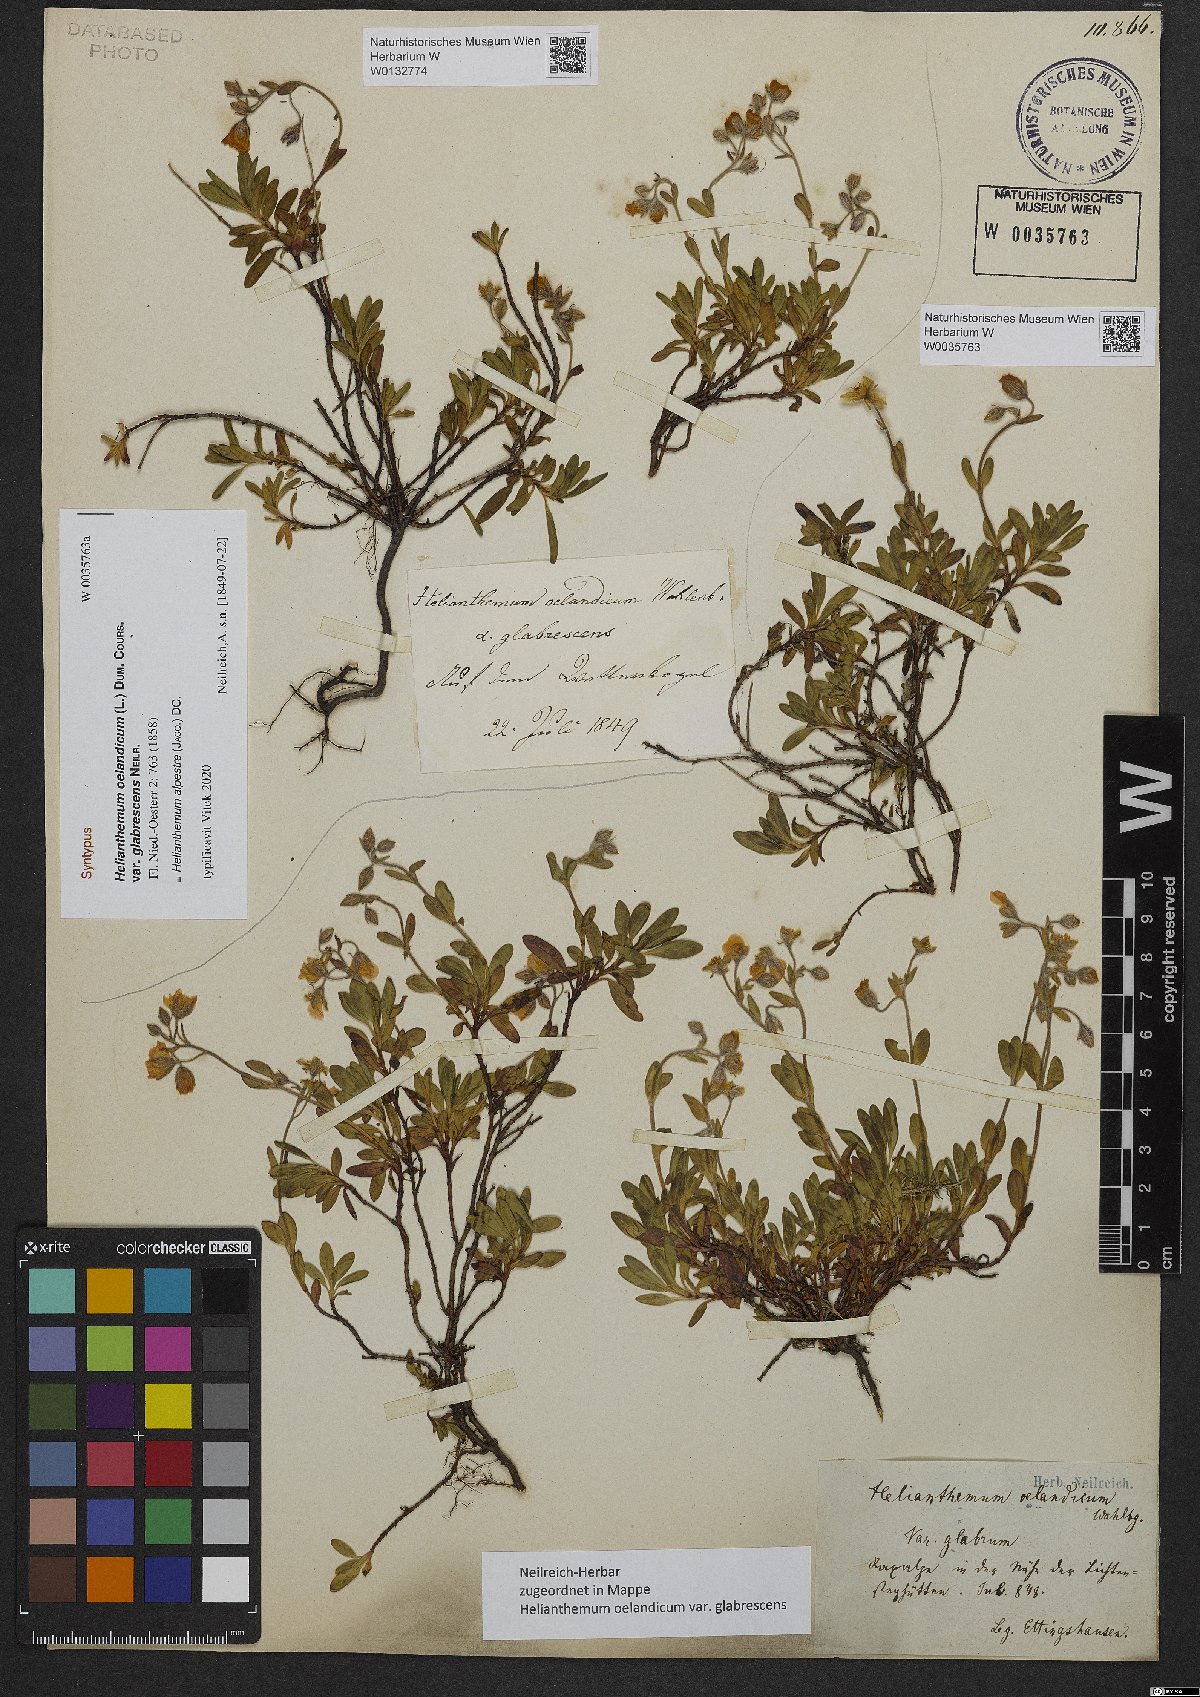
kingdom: Plantae
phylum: Tracheophyta
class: Magnoliopsida
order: Malvales
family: Cistaceae
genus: Helianthemum
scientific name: Helianthemum alpestre
